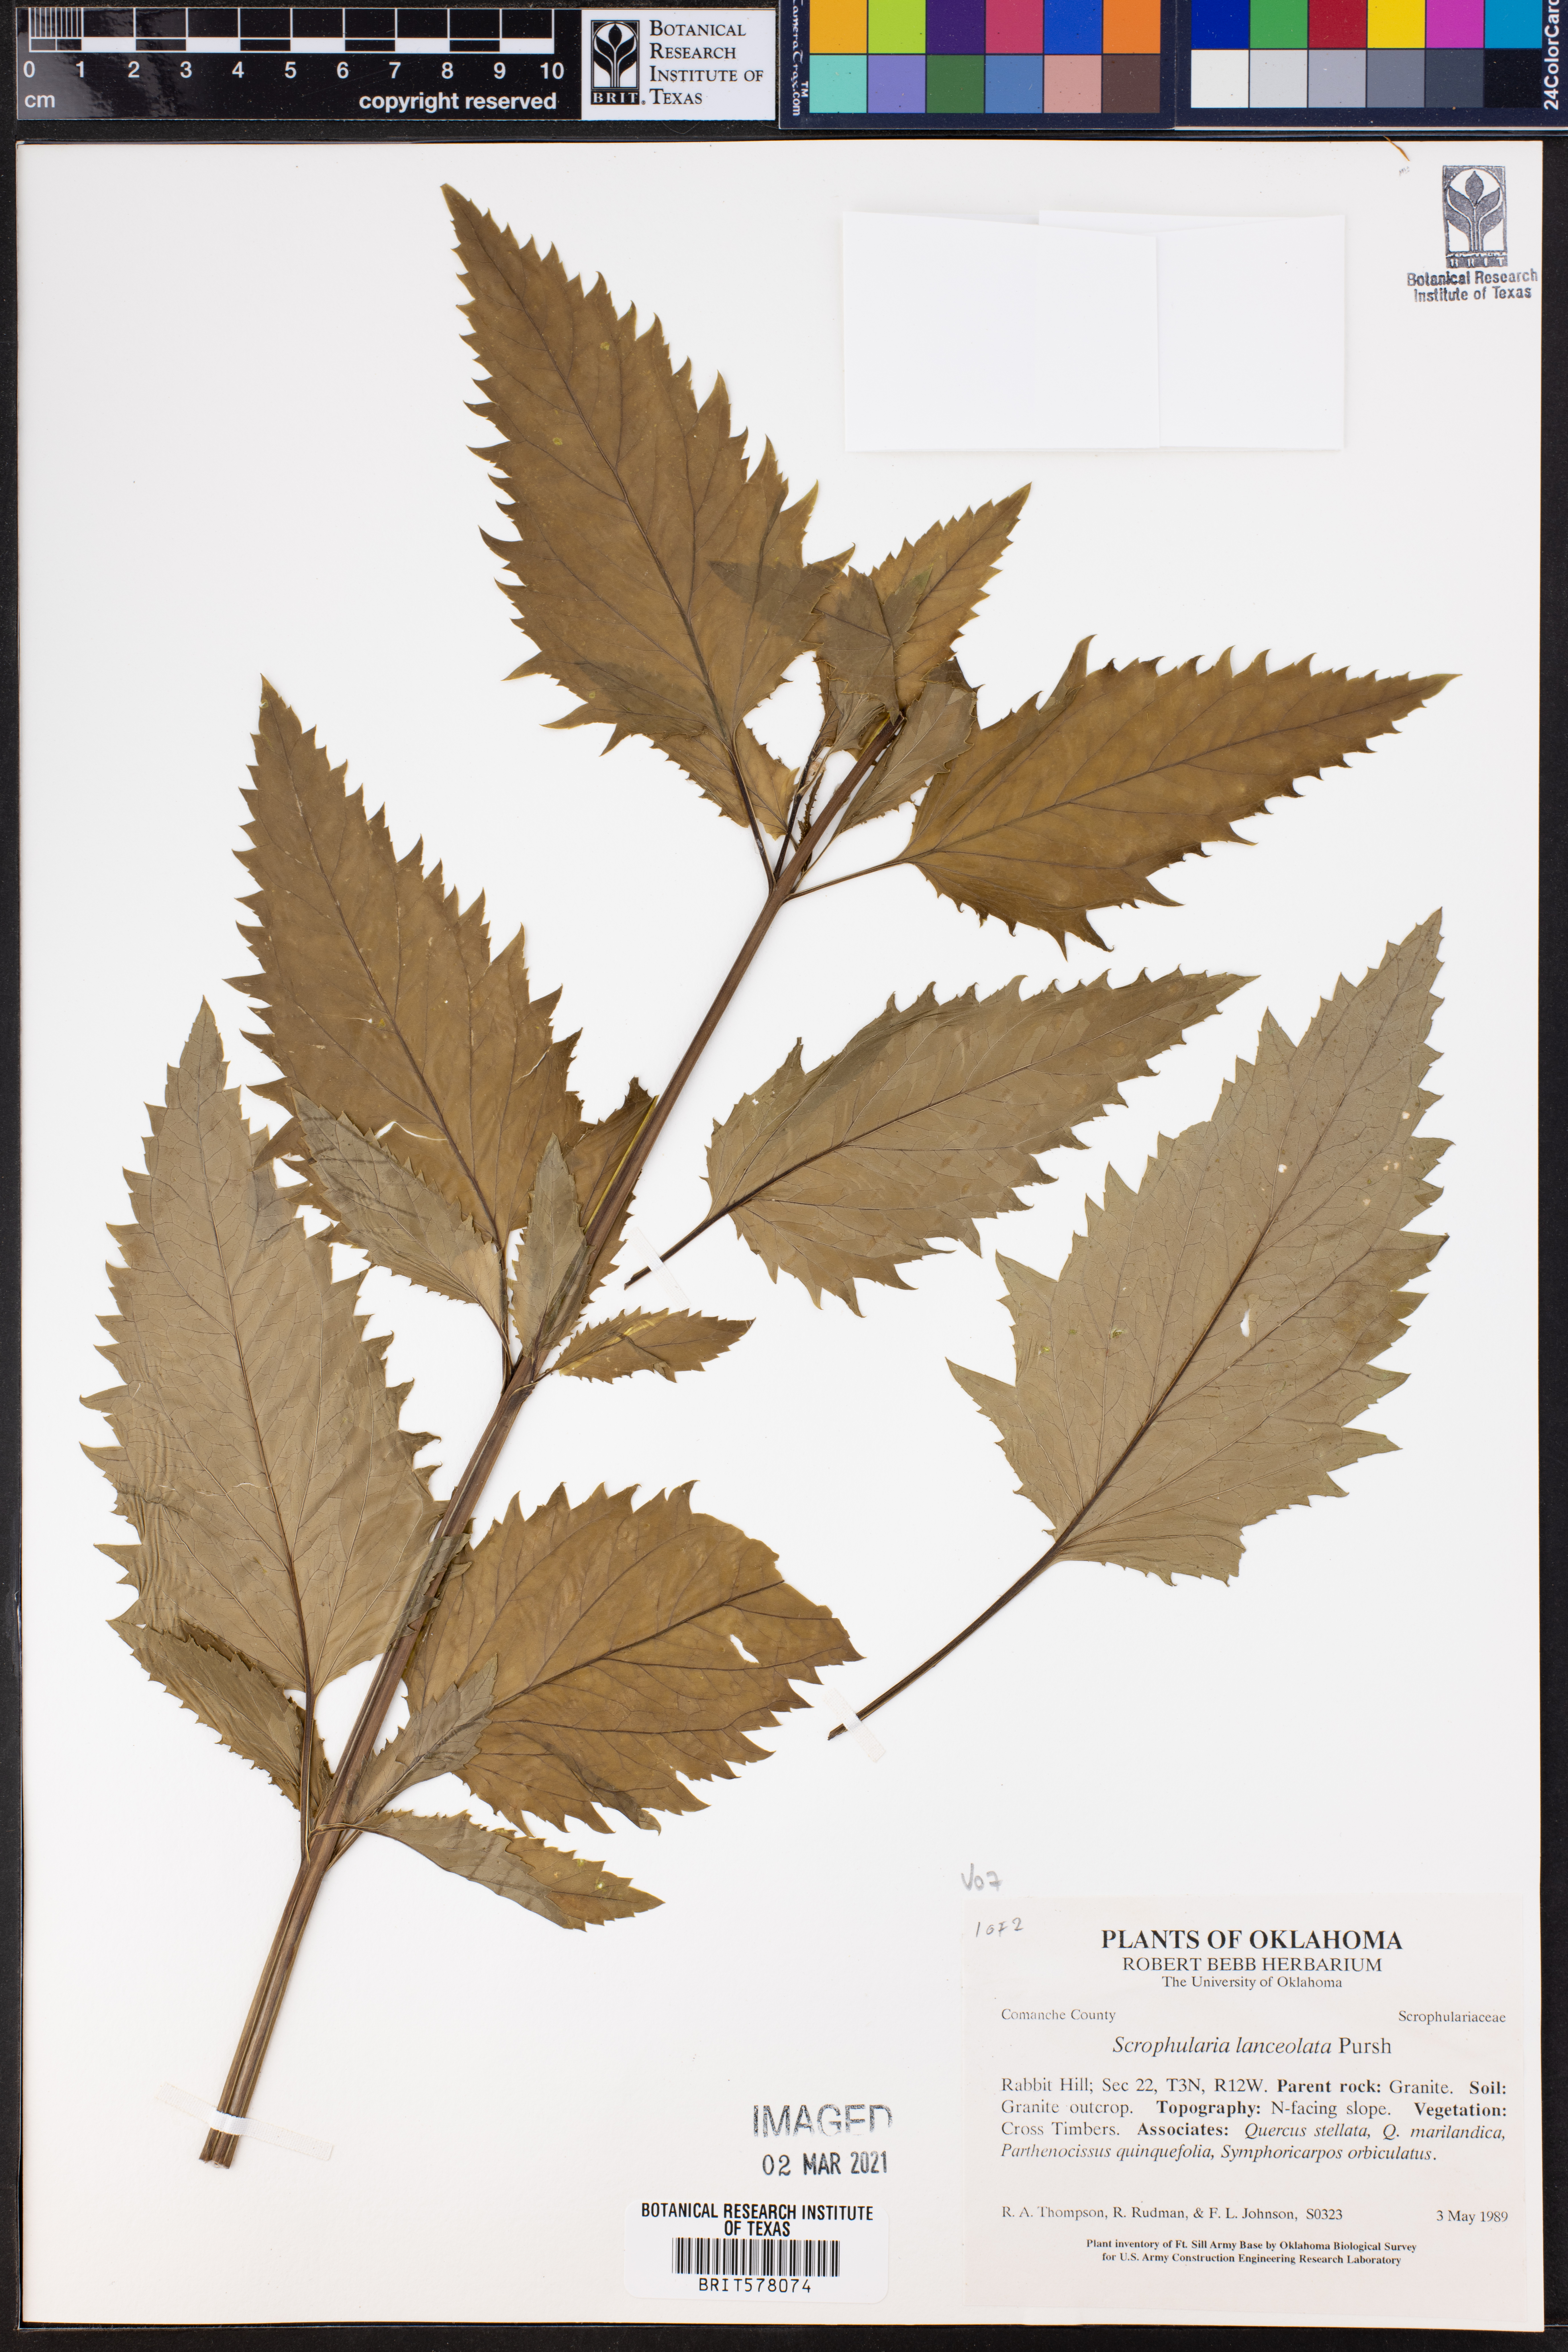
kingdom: Plantae
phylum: Tracheophyta
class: Magnoliopsida
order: Lamiales
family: Scrophulariaceae
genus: Scrophularia
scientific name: Scrophularia lanceolata
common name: American figwort
